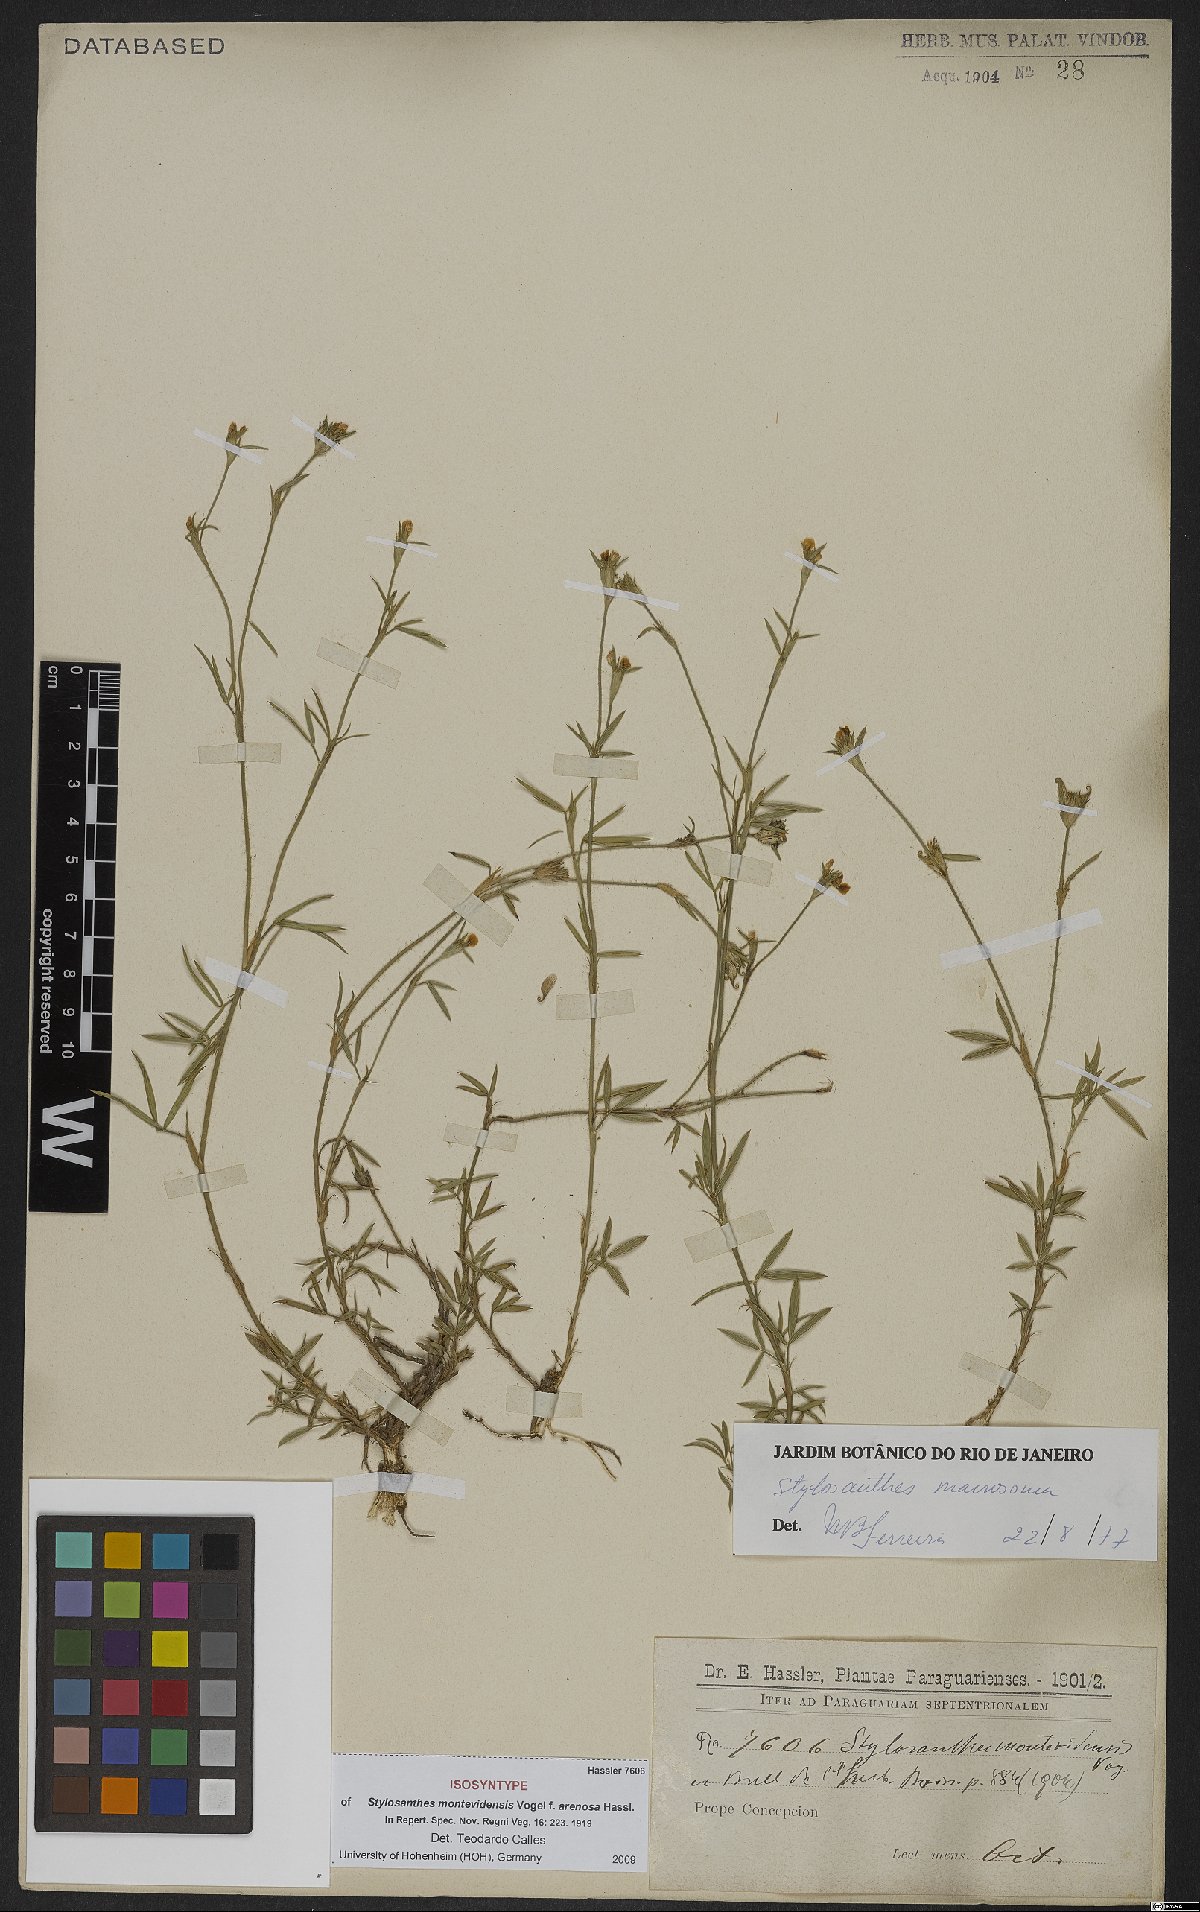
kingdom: Plantae
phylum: Tracheophyta
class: Magnoliopsida
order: Fabales
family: Fabaceae
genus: Stylosanthes
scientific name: Stylosanthes macrosoma
